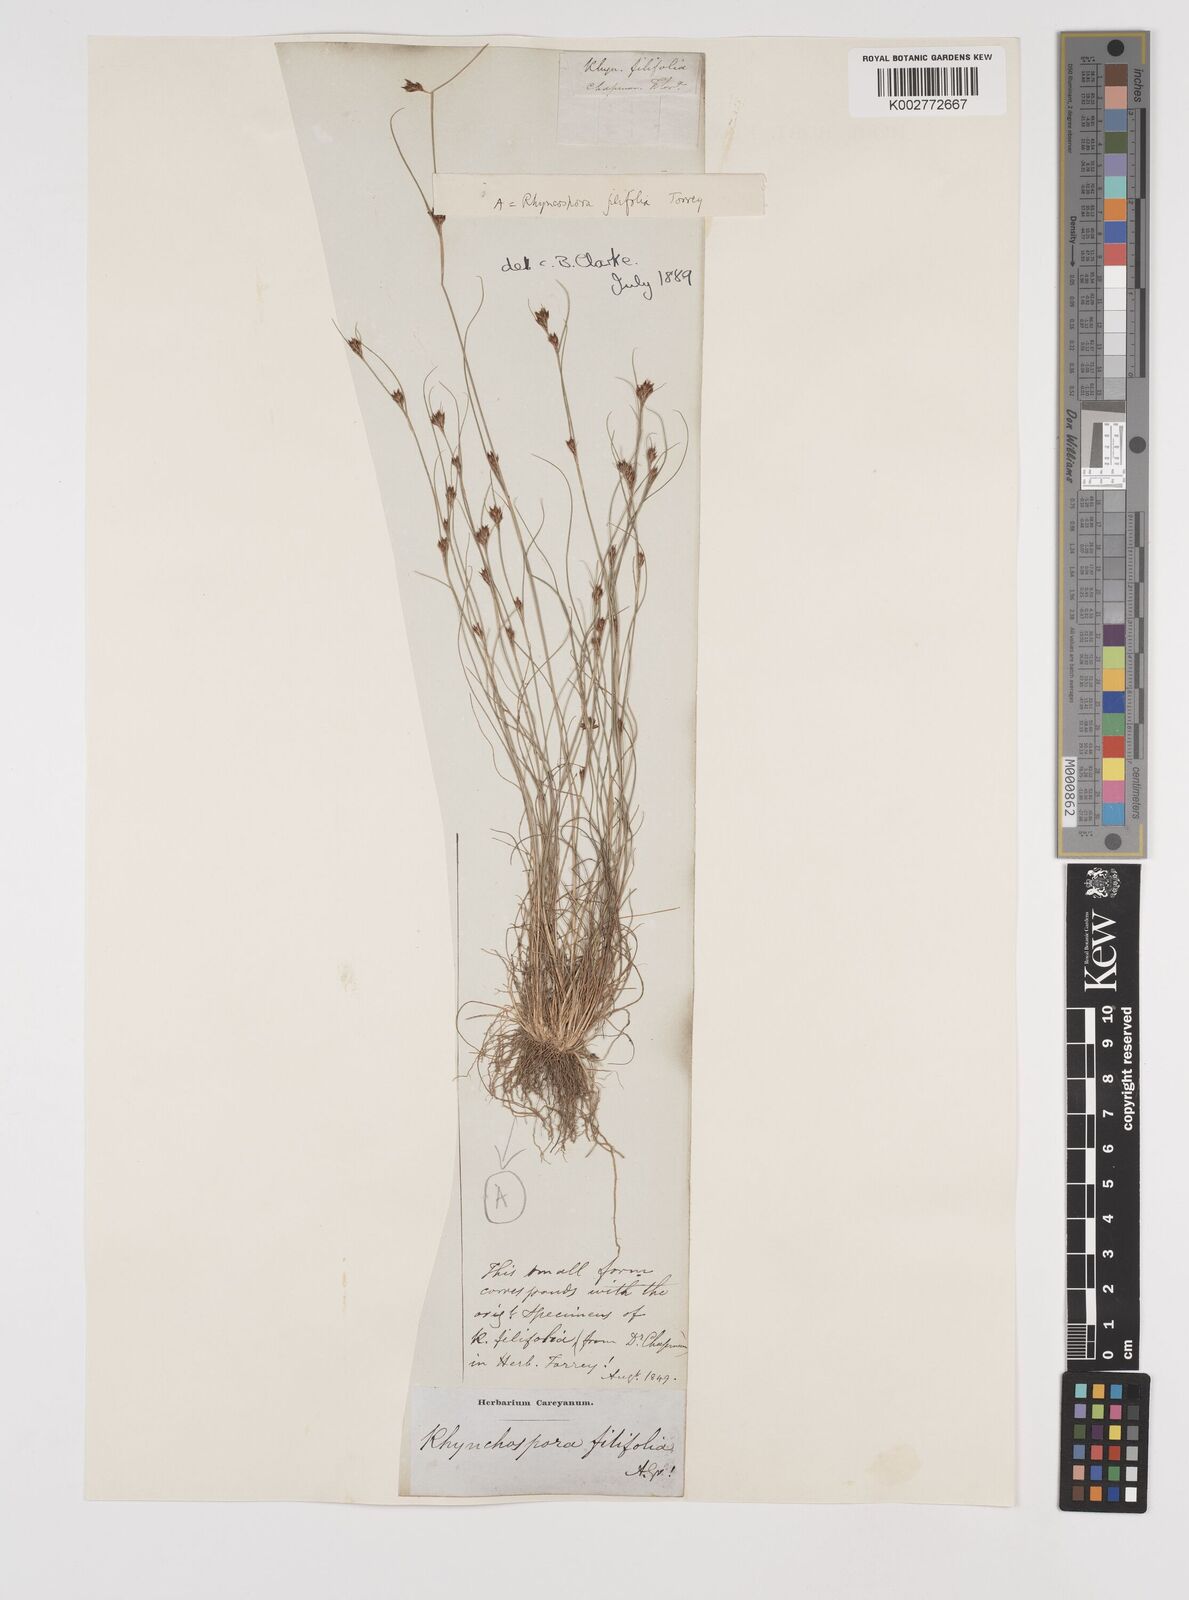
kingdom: Plantae
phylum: Tracheophyta
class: Liliopsida
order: Poales
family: Cyperaceae
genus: Rhynchospora
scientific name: Rhynchospora filifolia
